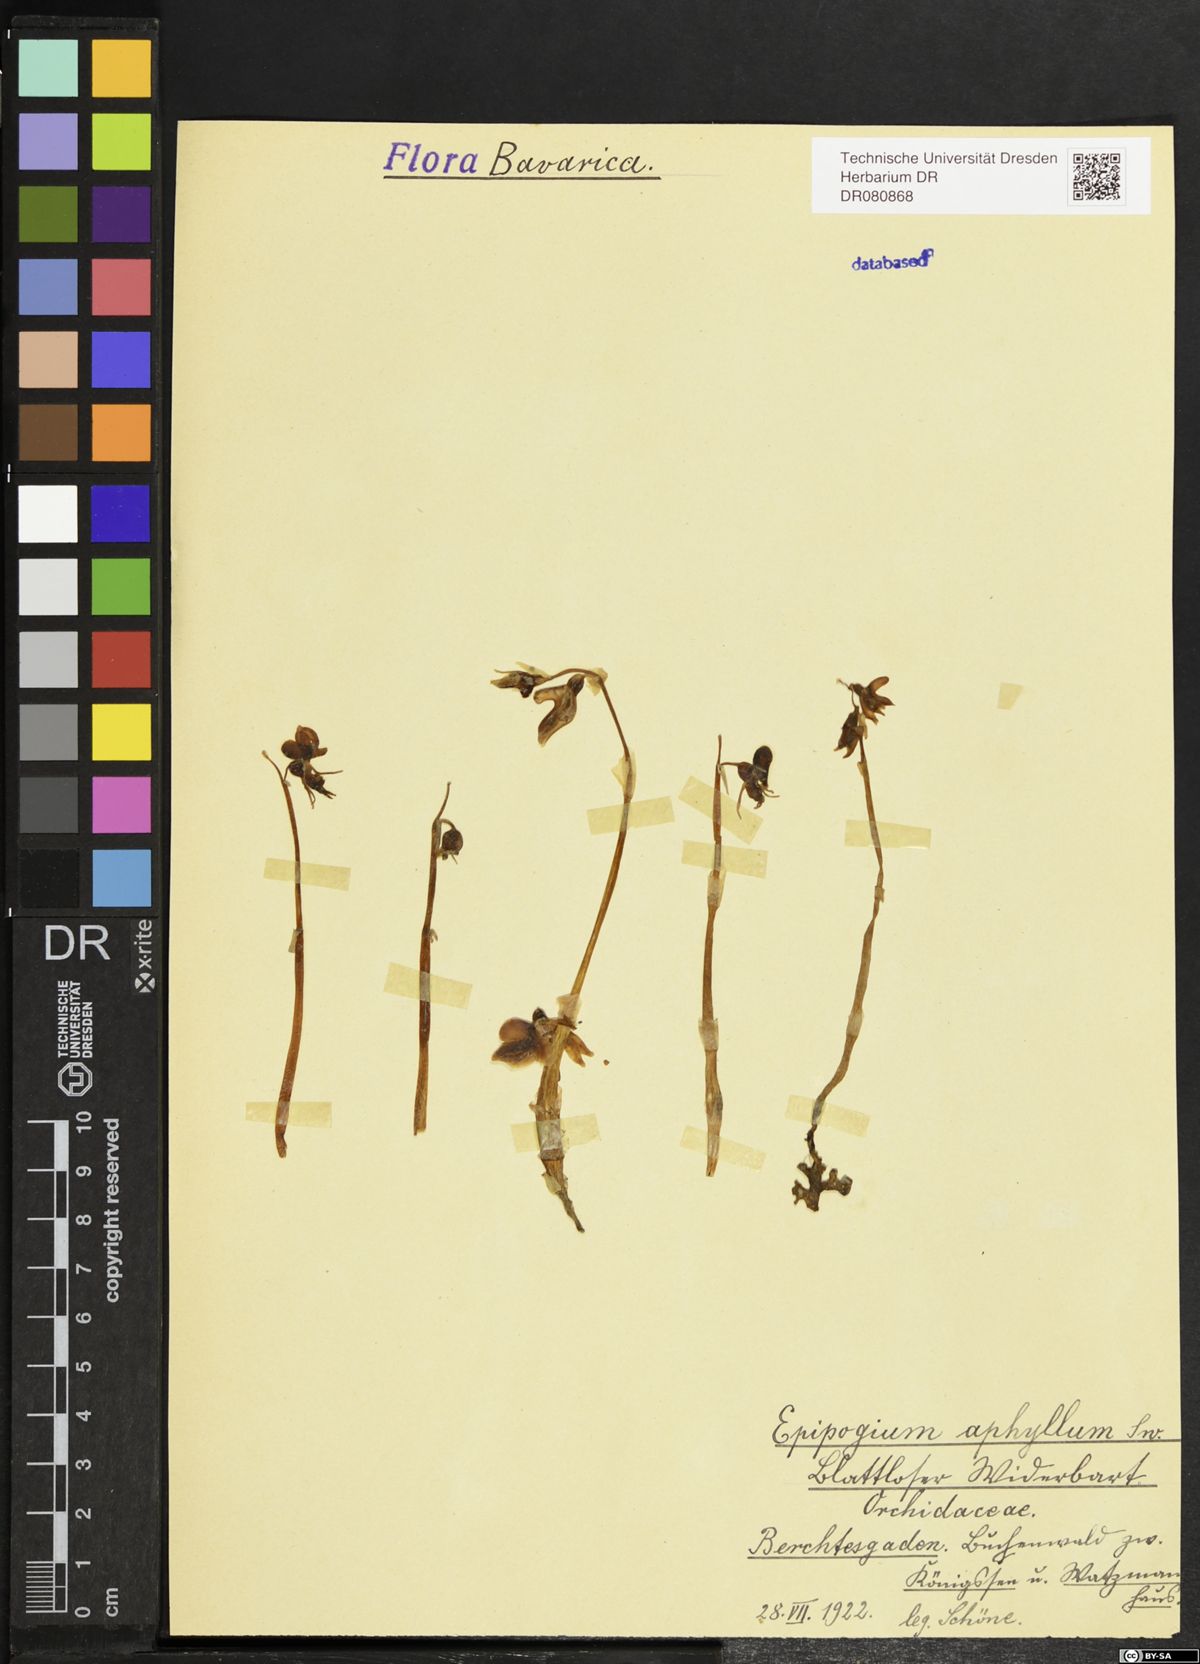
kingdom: Plantae
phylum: Tracheophyta
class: Liliopsida
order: Asparagales
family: Orchidaceae
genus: Epipogium
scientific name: Epipogium aphyllum
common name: Ghost orchid
